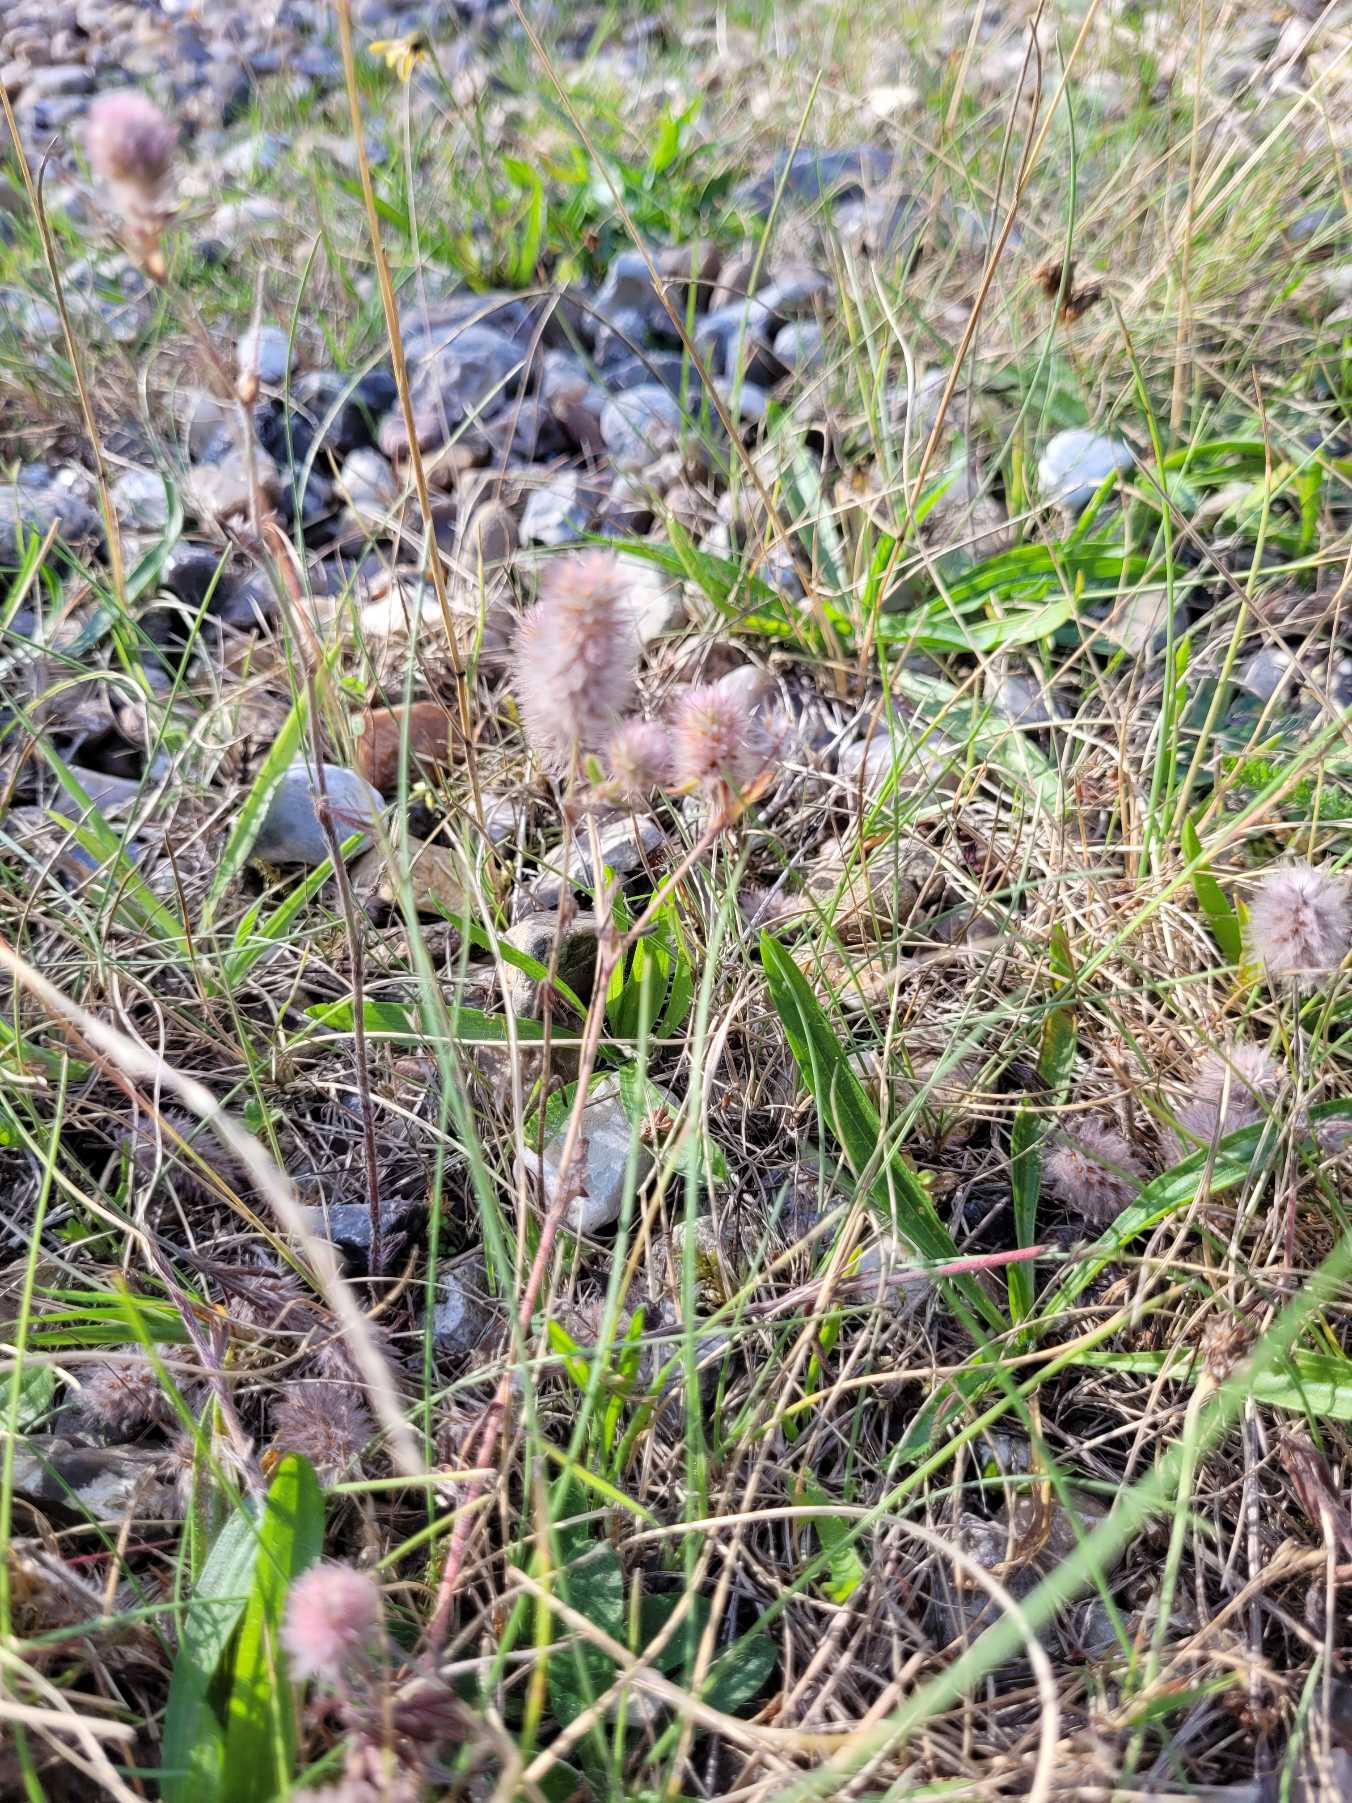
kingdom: Plantae
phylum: Tracheophyta
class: Magnoliopsida
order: Fabales
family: Fabaceae
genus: Trifolium
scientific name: Trifolium arvense
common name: Hare-kløver
